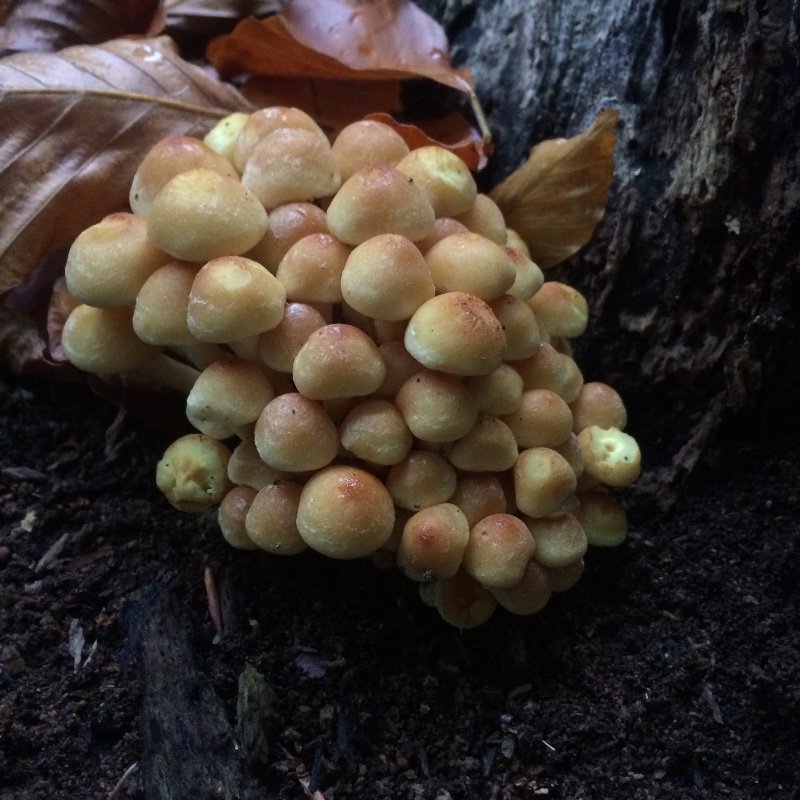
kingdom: Fungi
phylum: Basidiomycota
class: Agaricomycetes
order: Agaricales
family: Strophariaceae
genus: Hypholoma
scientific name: Hypholoma fasciculare
